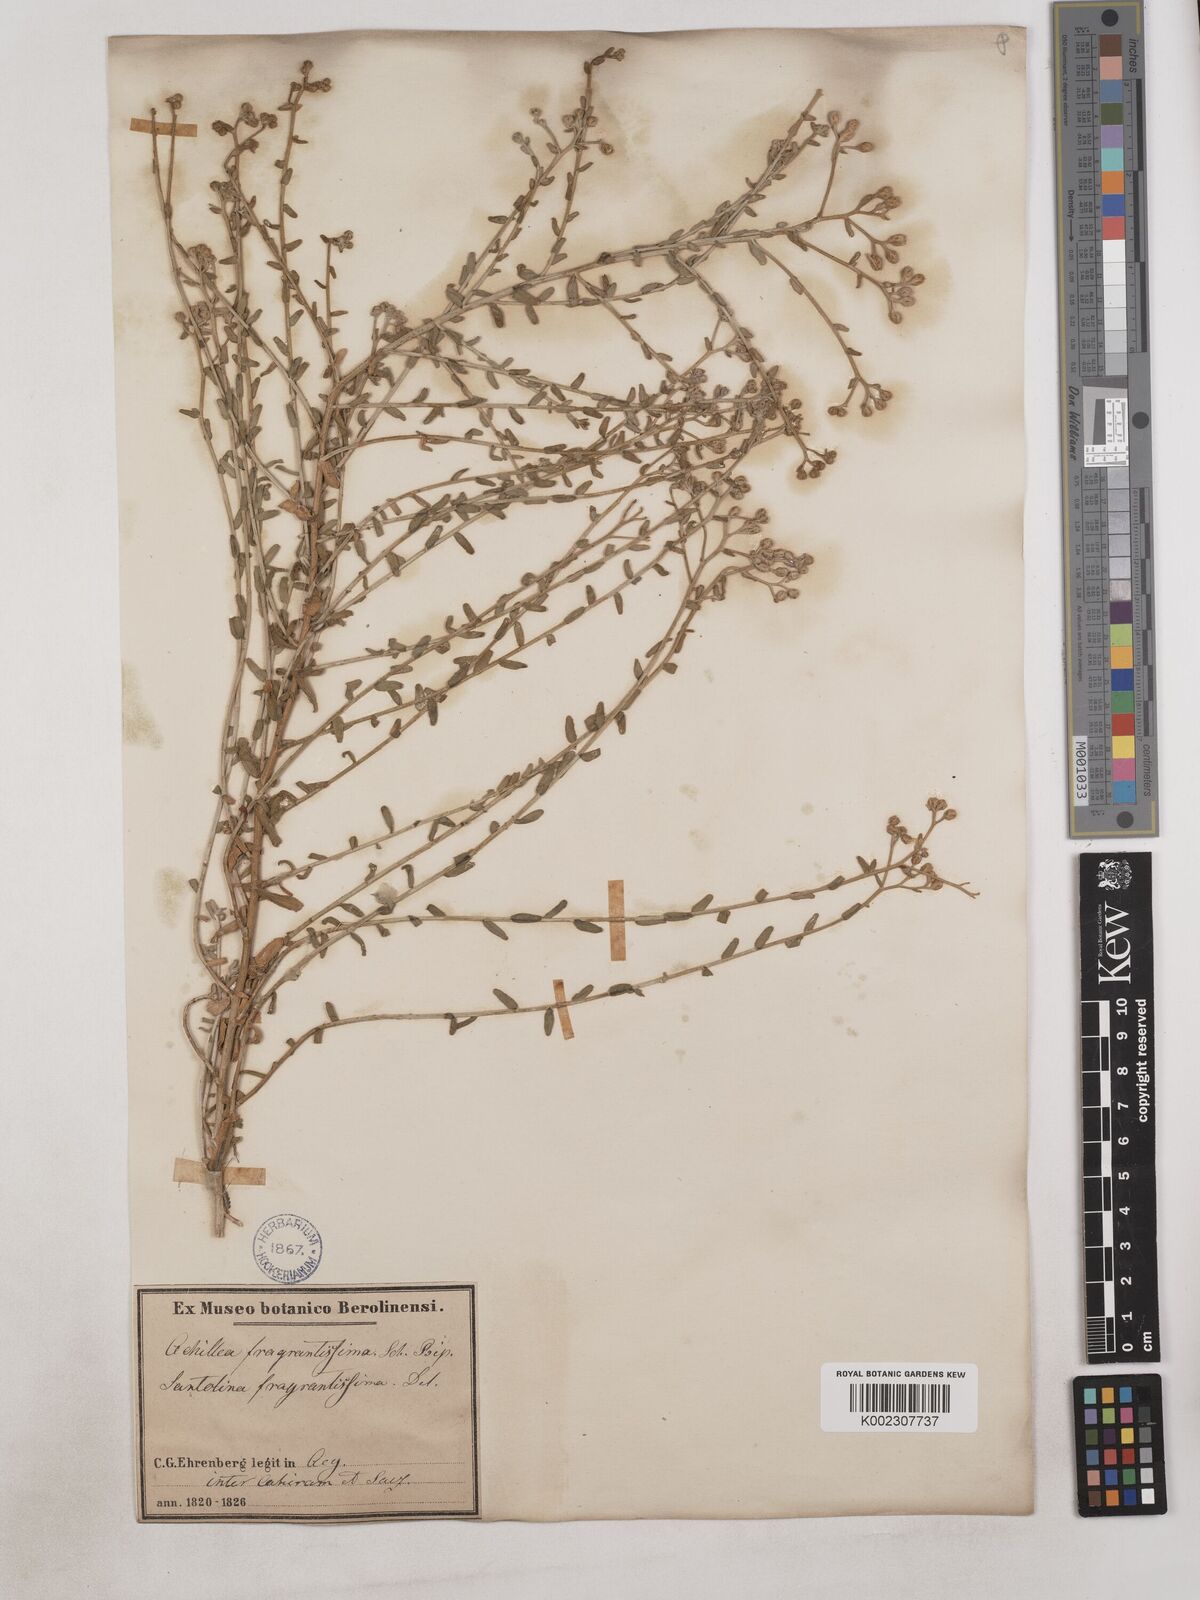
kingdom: Plantae
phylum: Tracheophyta
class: Magnoliopsida
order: Asterales
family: Asteraceae
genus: Achillea
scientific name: Achillea fragrantissima
